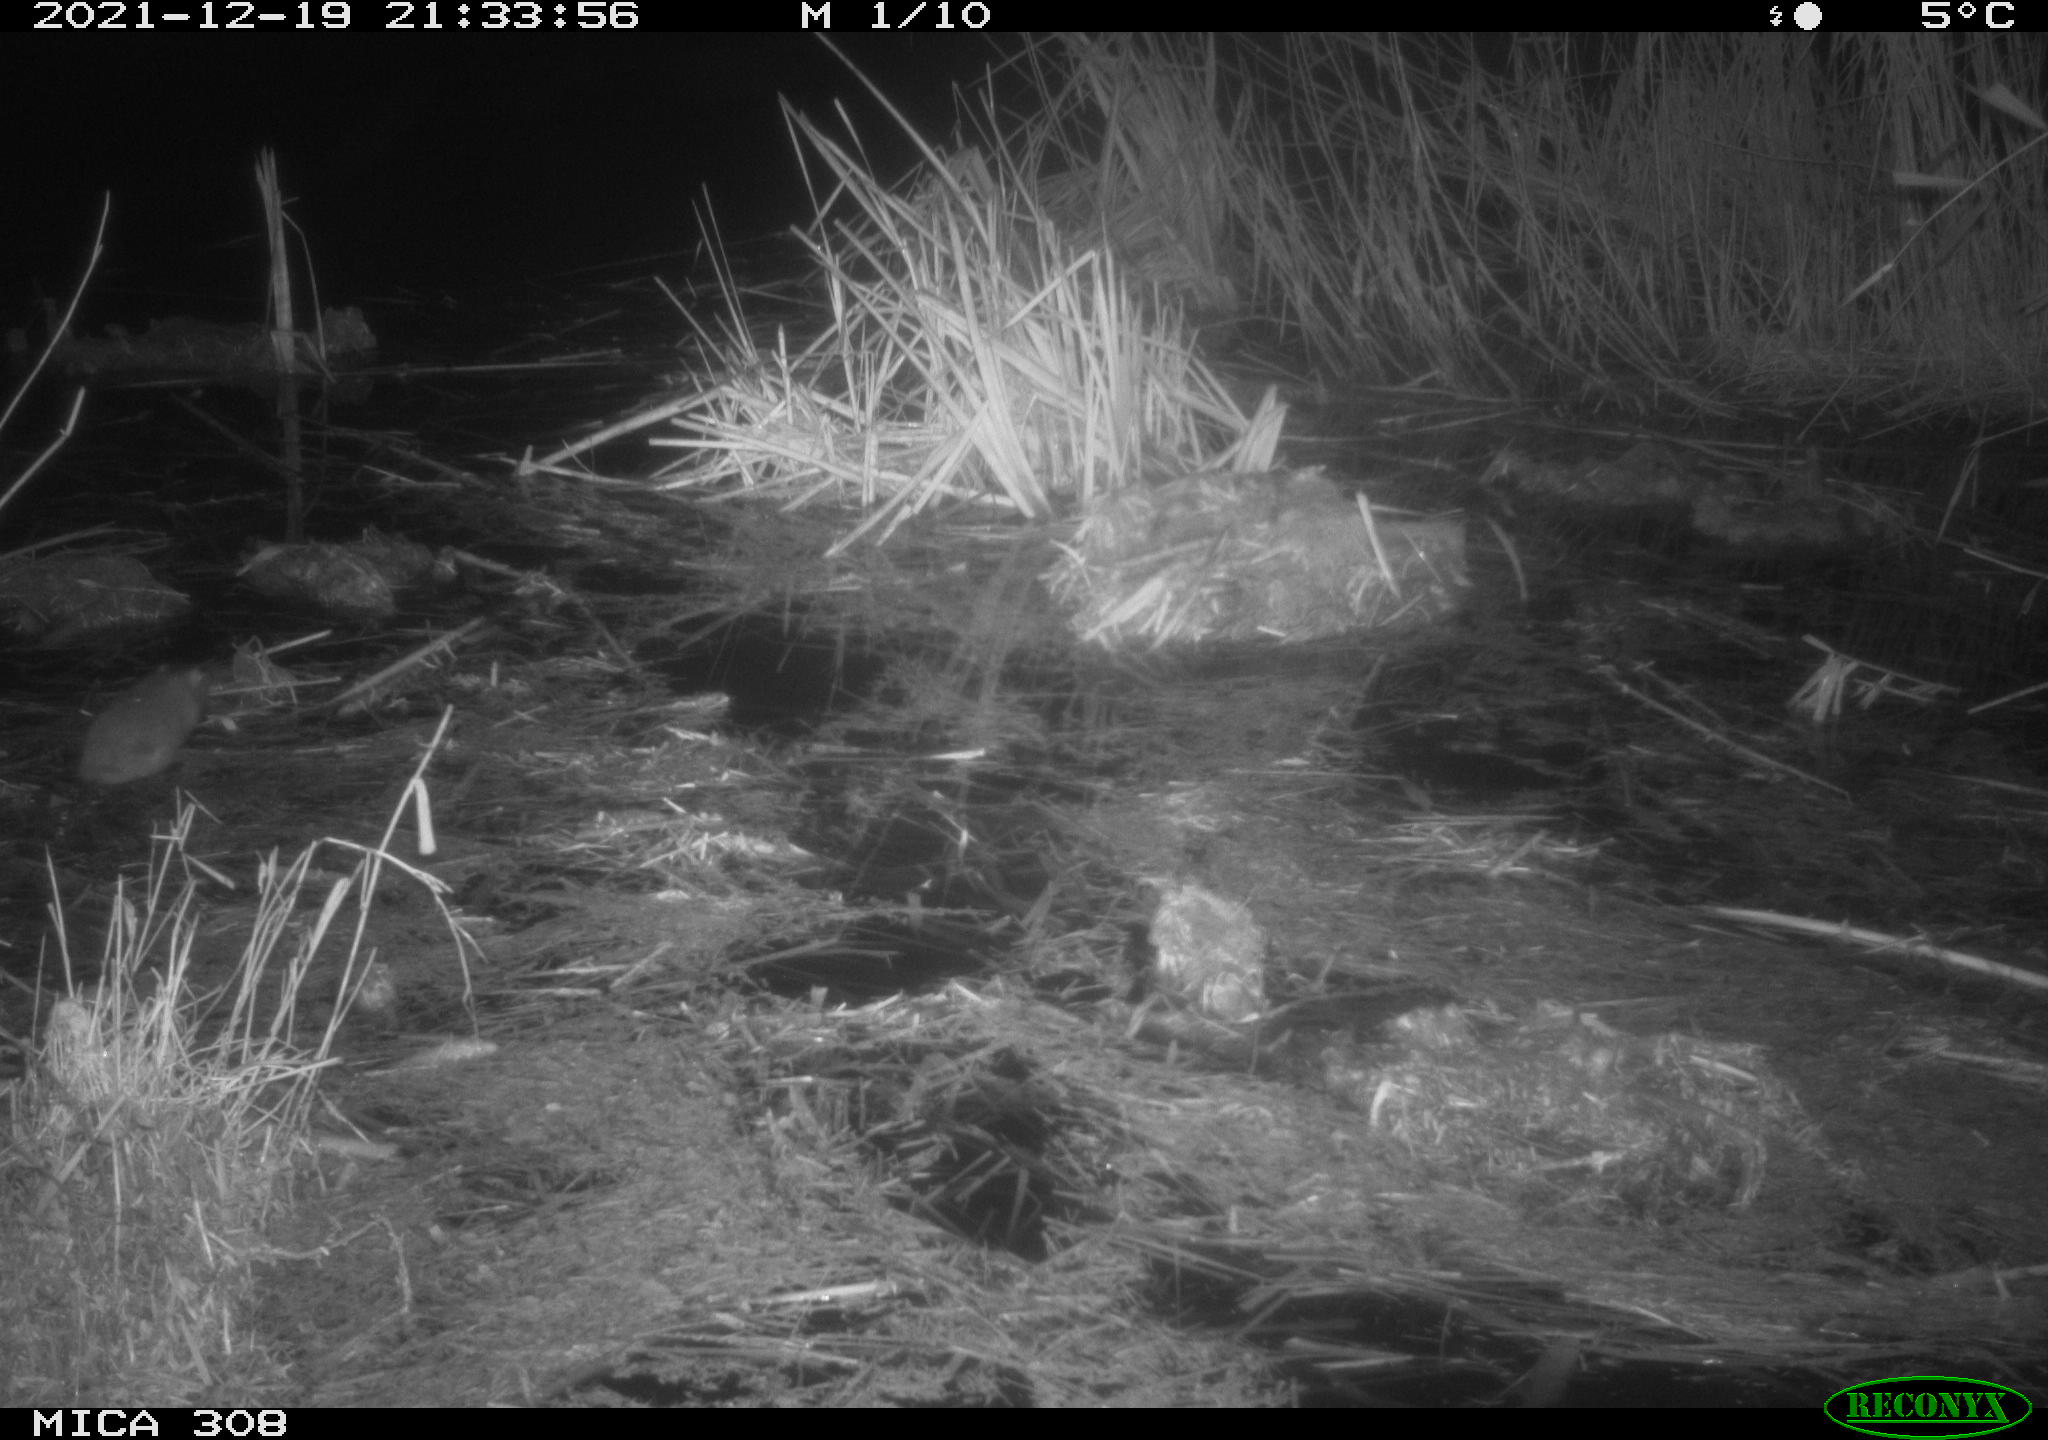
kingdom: Animalia
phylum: Chordata
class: Mammalia
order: Rodentia
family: Muridae
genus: Rattus
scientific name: Rattus norvegicus
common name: Brown rat
